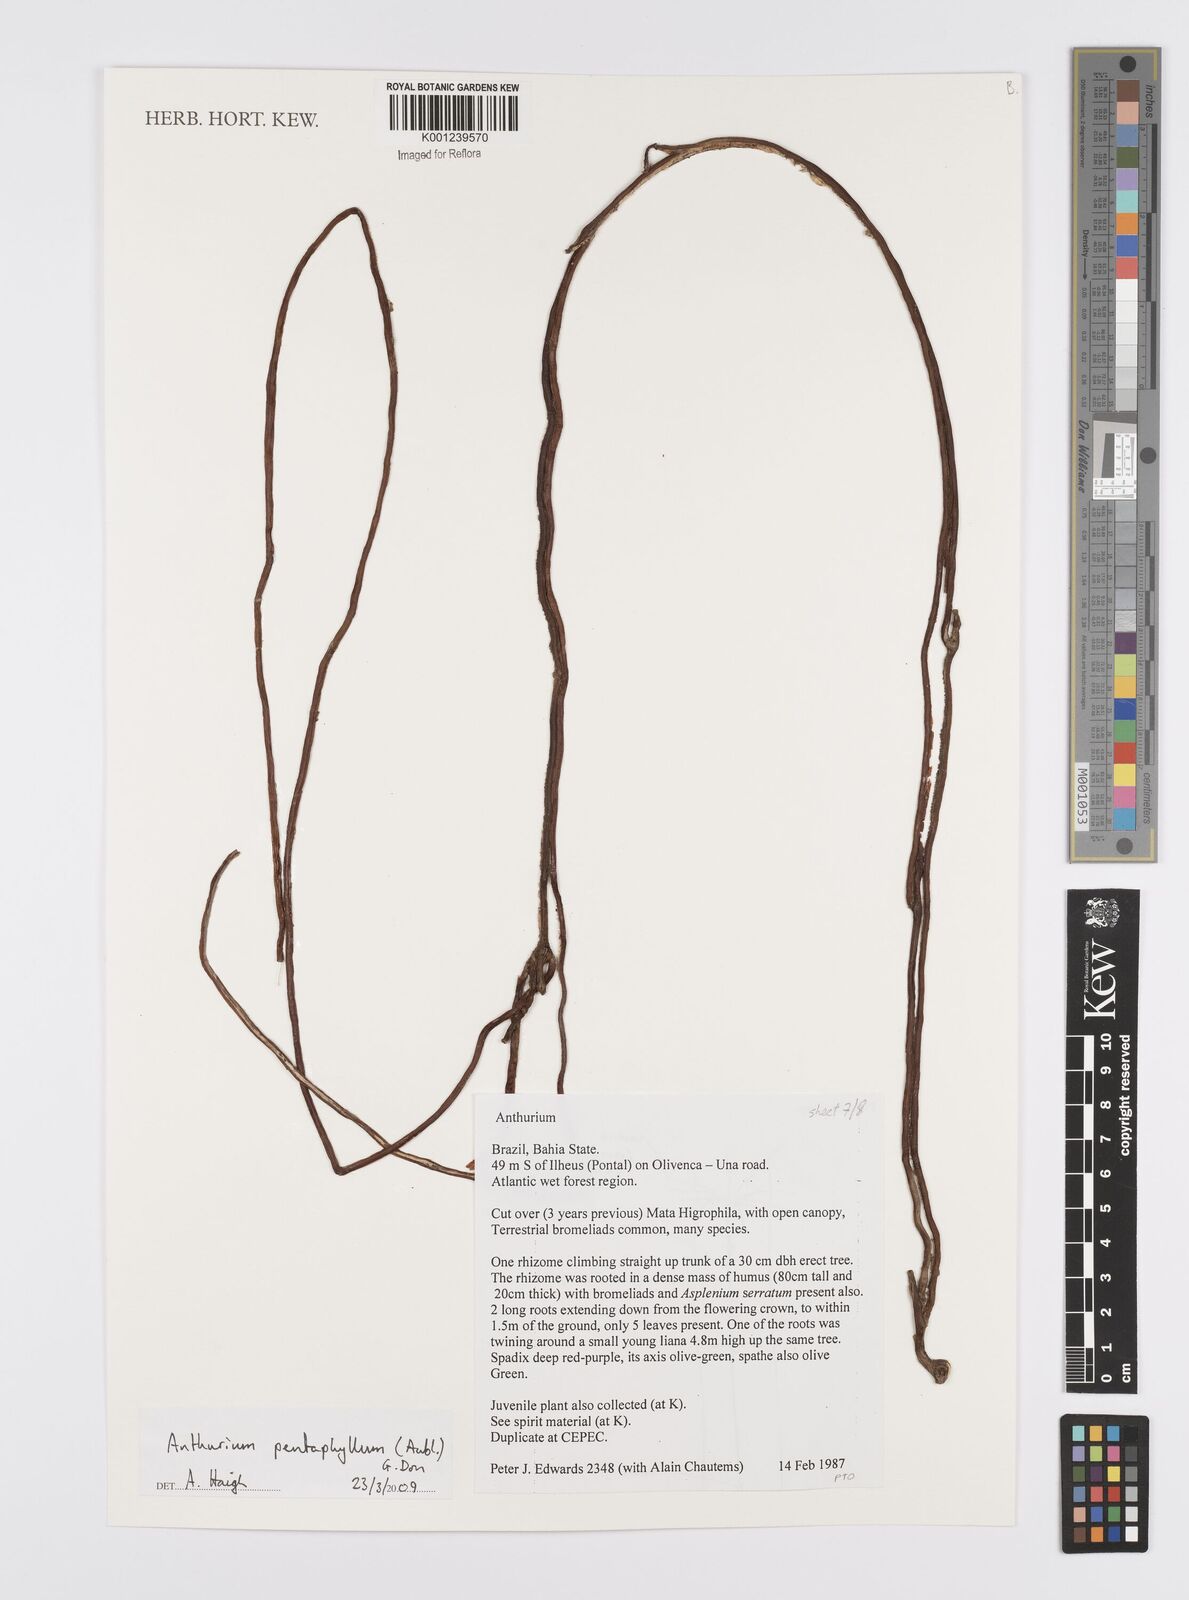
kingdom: Plantae
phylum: Tracheophyta
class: Liliopsida
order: Alismatales
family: Araceae
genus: Anthurium
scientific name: Anthurium pentaphyllum
